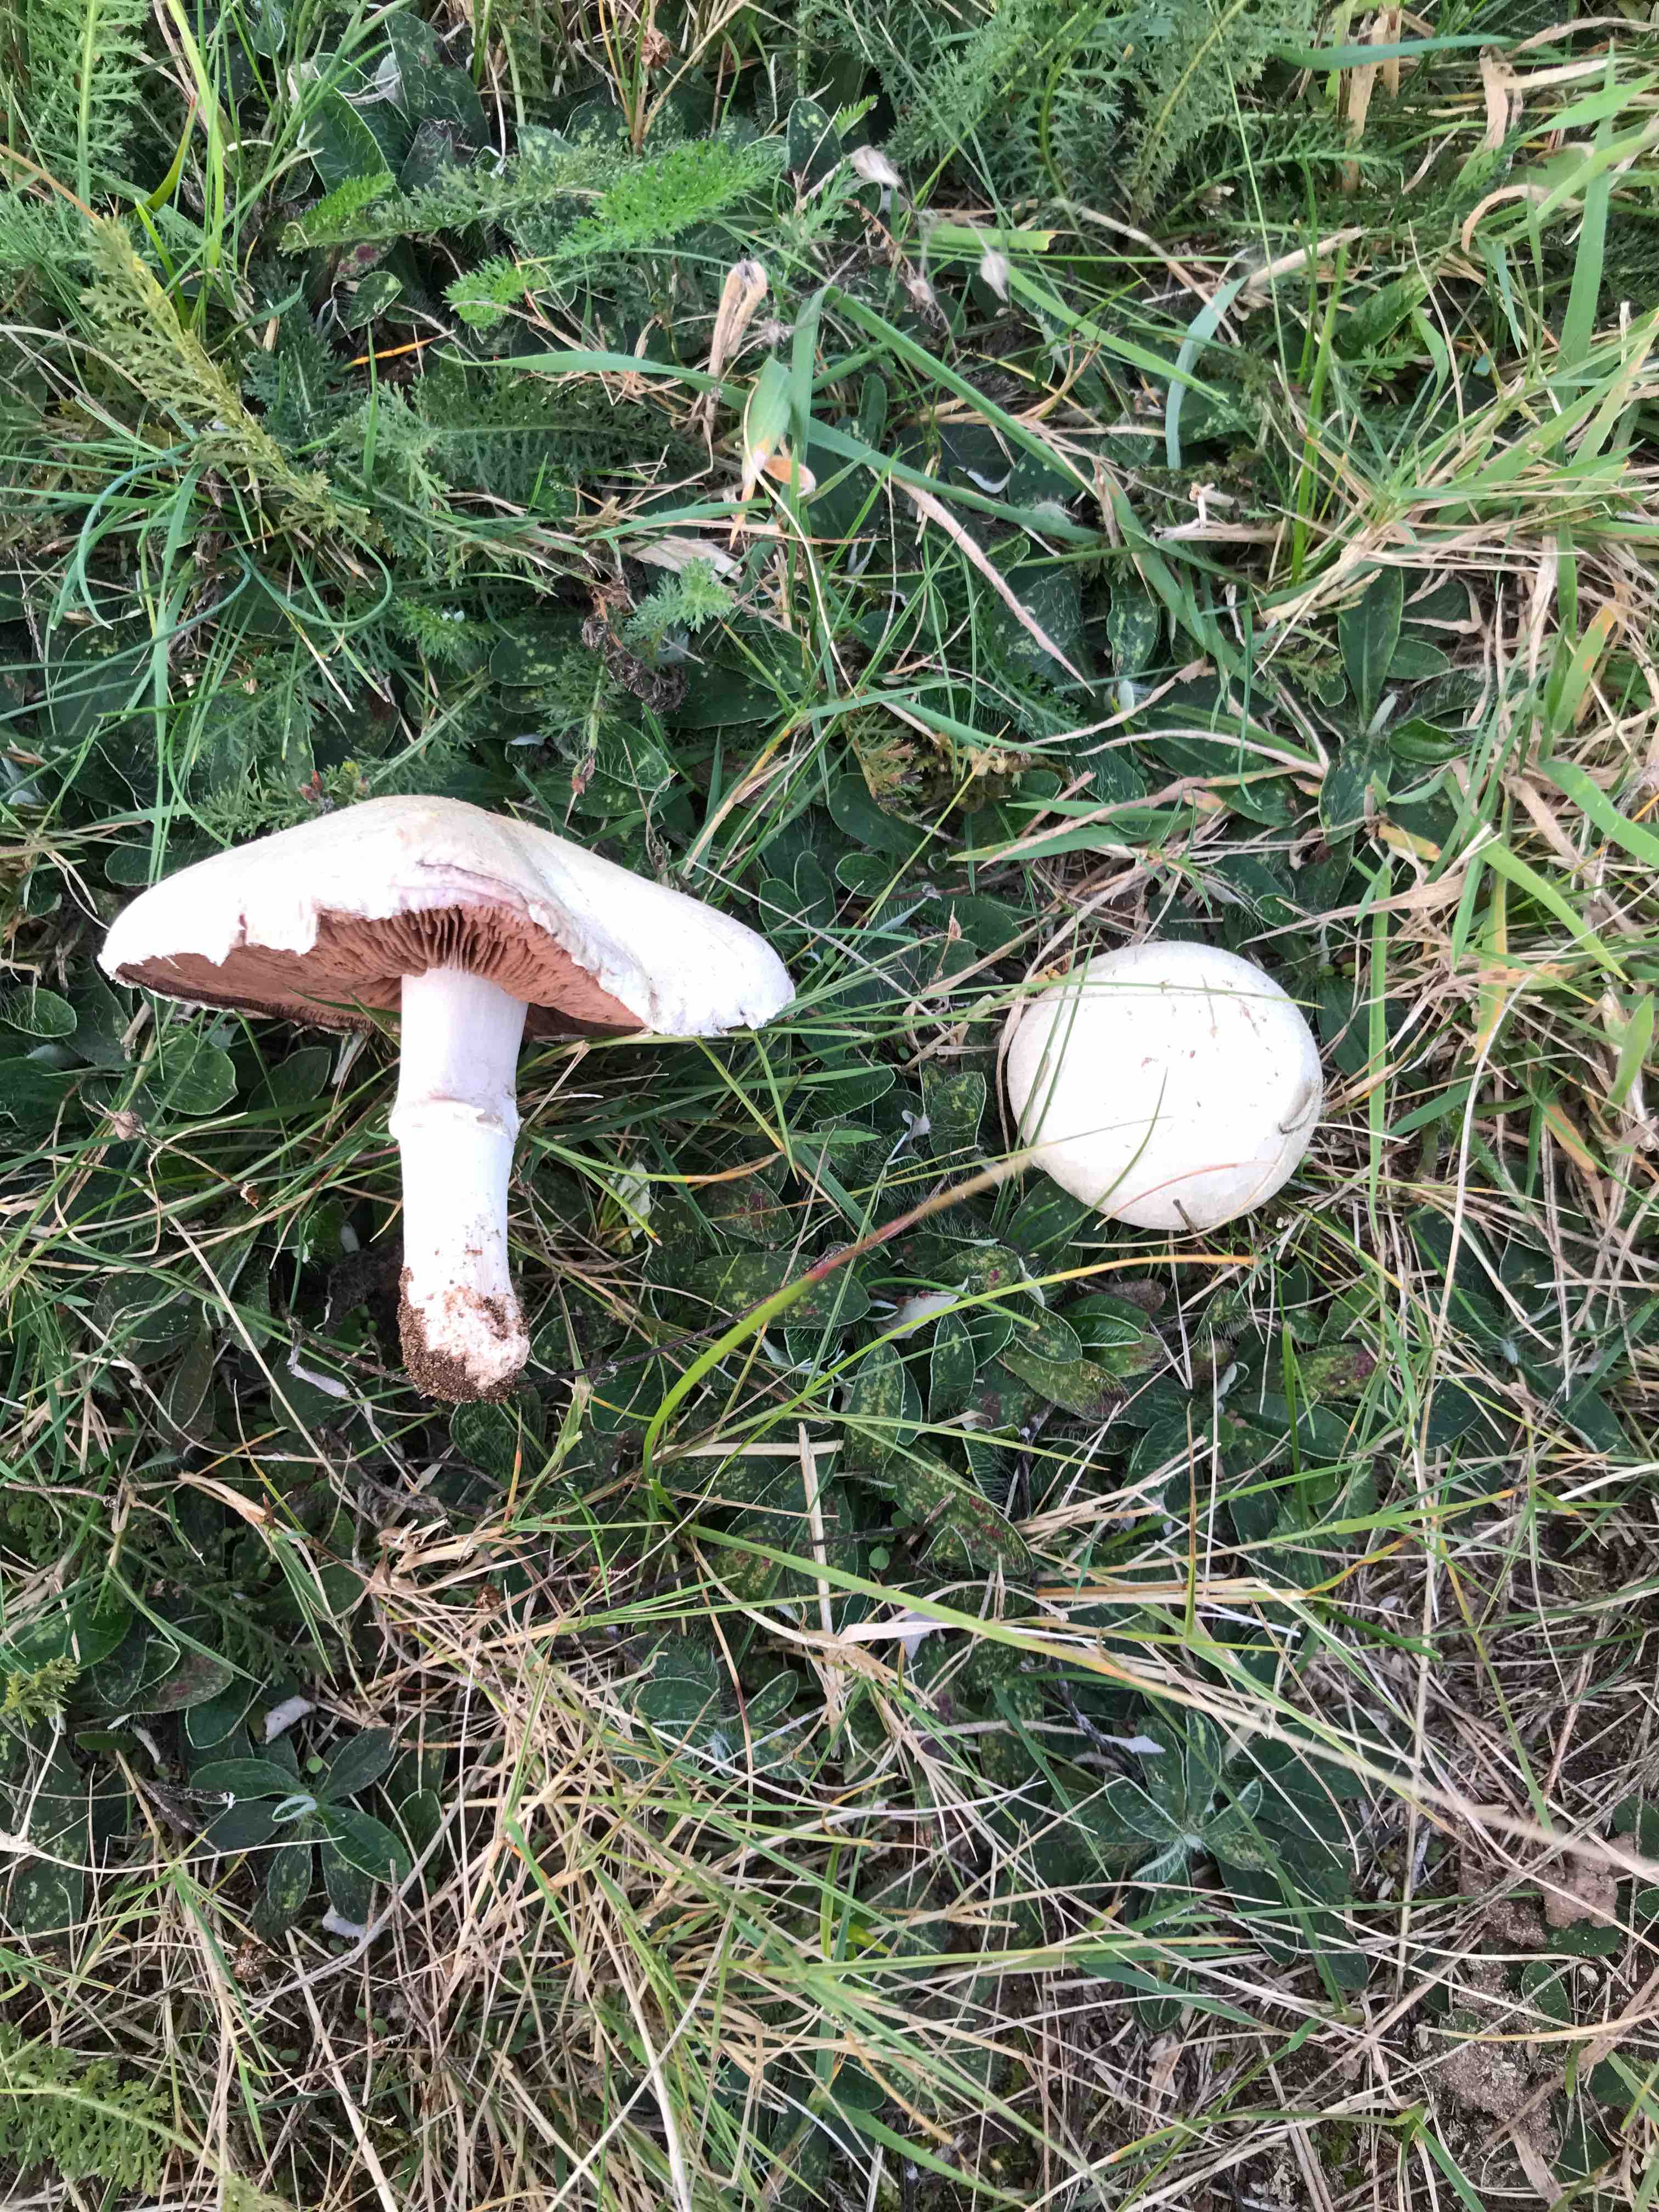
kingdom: Fungi
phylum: Basidiomycota
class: Agaricomycetes
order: Agaricales
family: Agaricaceae
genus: Agaricus
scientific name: Agaricus
